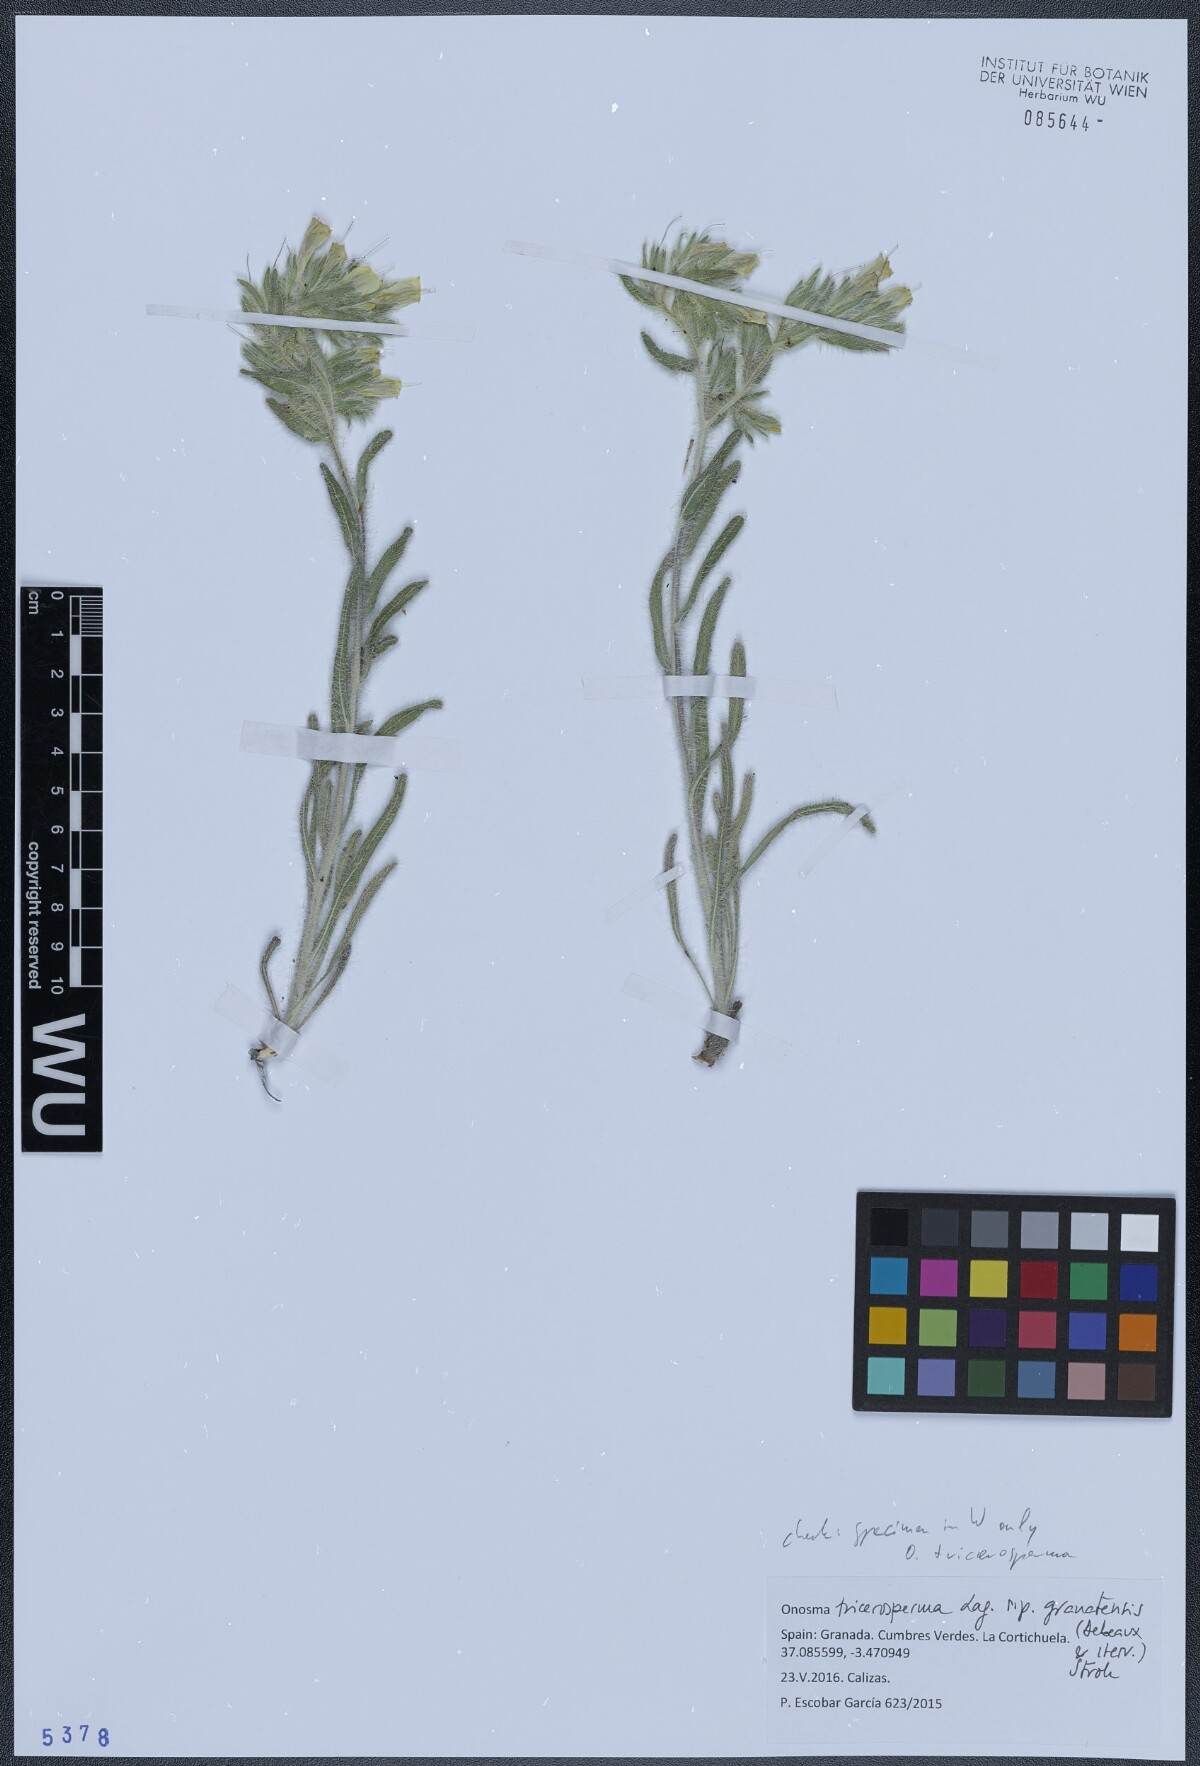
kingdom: Plantae
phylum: Tracheophyta
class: Magnoliopsida
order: Boraginales
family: Boraginaceae
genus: Onosma
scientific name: Onosma tricerosperma
